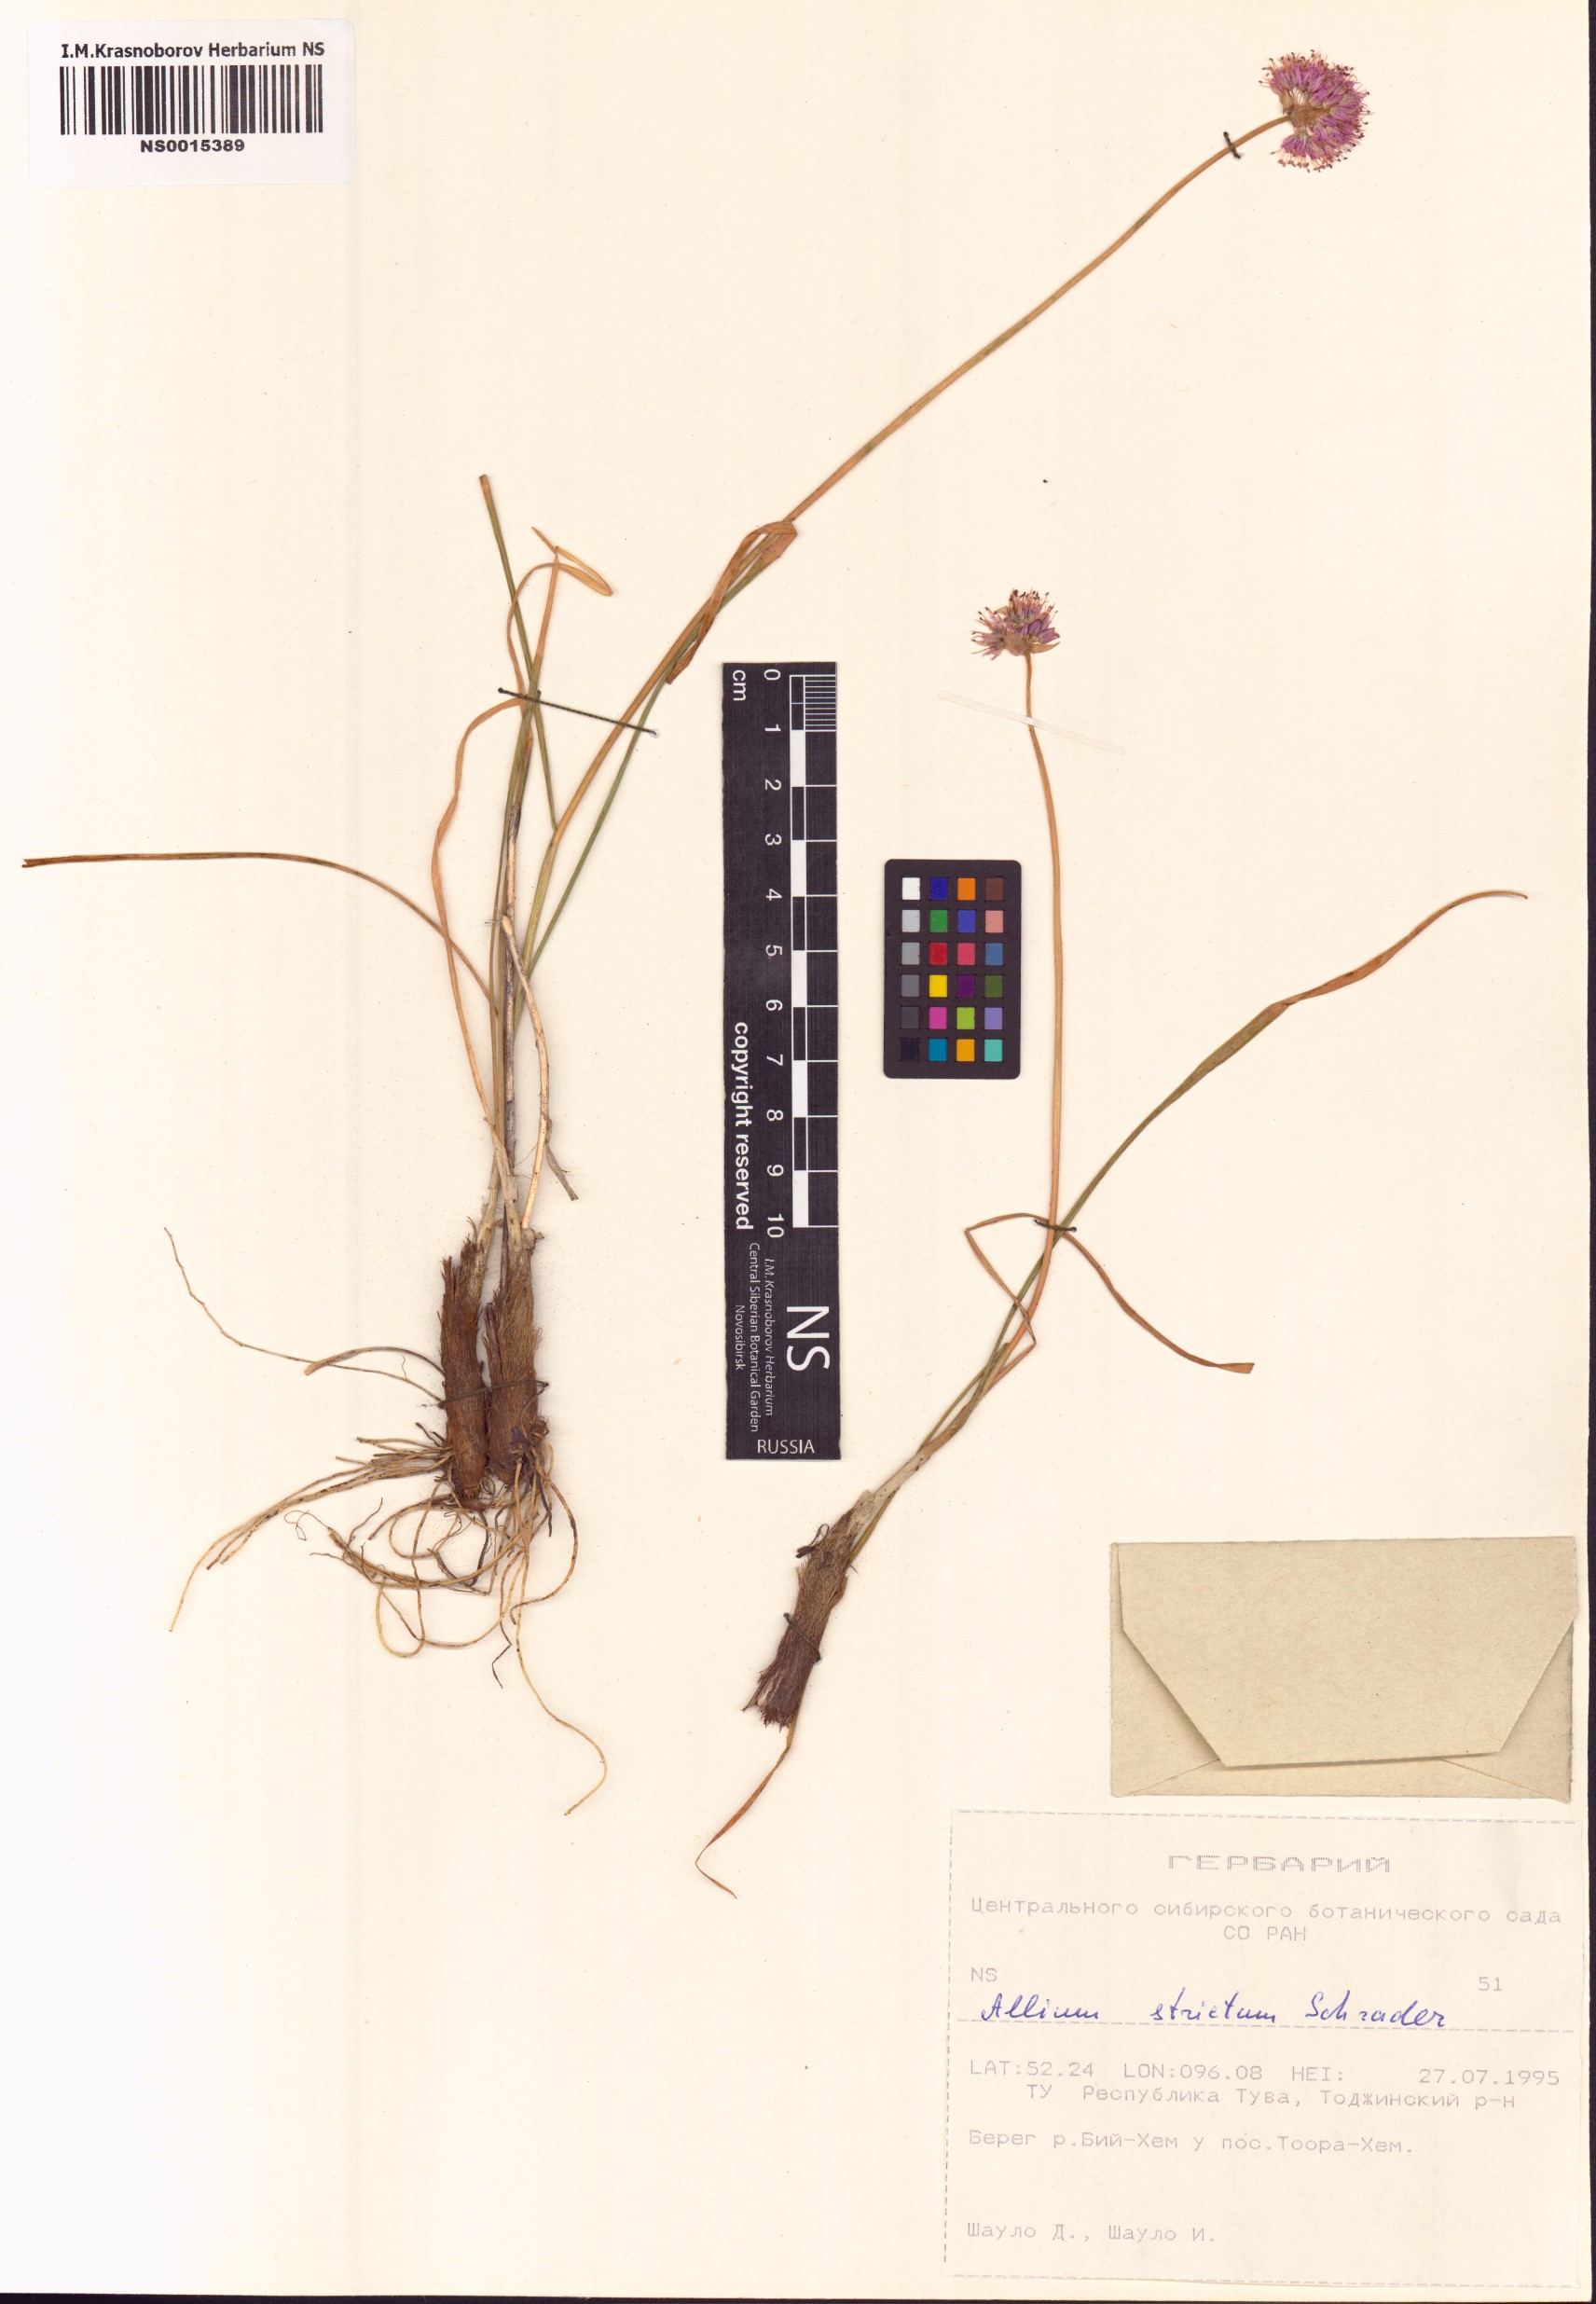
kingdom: Plantae
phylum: Tracheophyta
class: Liliopsida
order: Asparagales
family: Amaryllidaceae
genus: Allium
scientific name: Allium strictum
